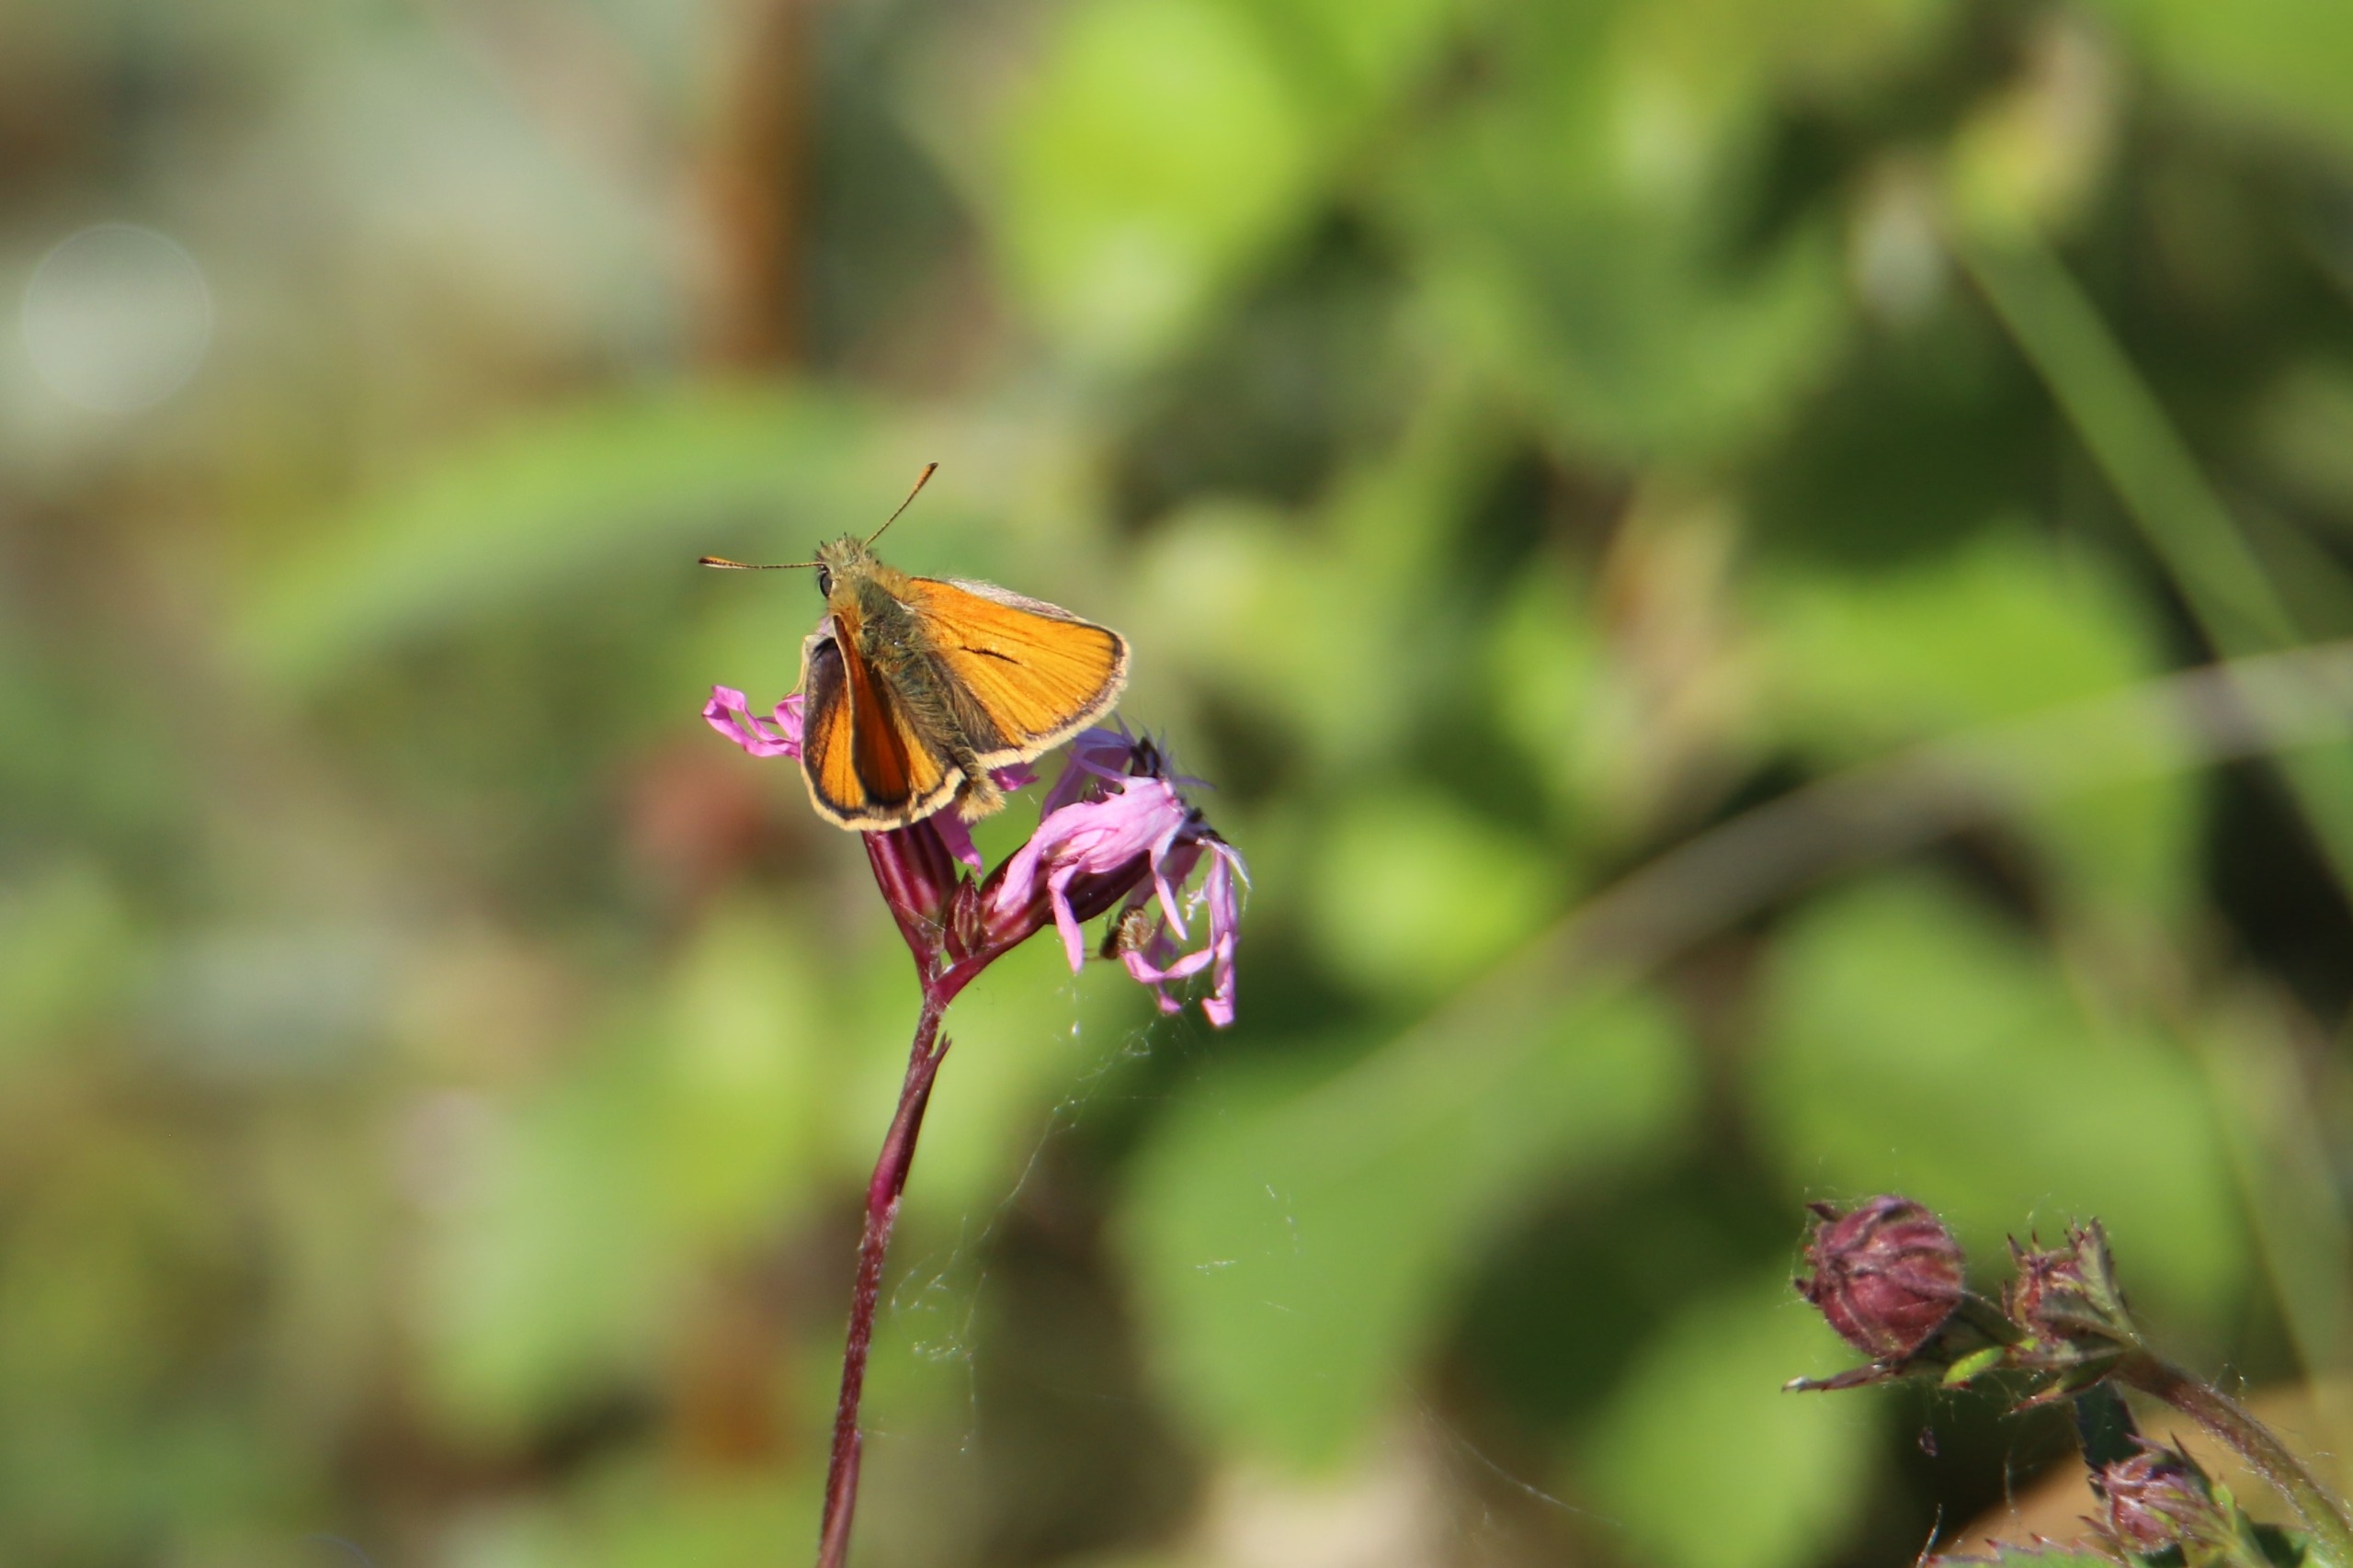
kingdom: Animalia
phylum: Arthropoda
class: Insecta
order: Lepidoptera
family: Hesperiidae
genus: Thymelicus
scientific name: Thymelicus sylvestris
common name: Skråstregbredpande
